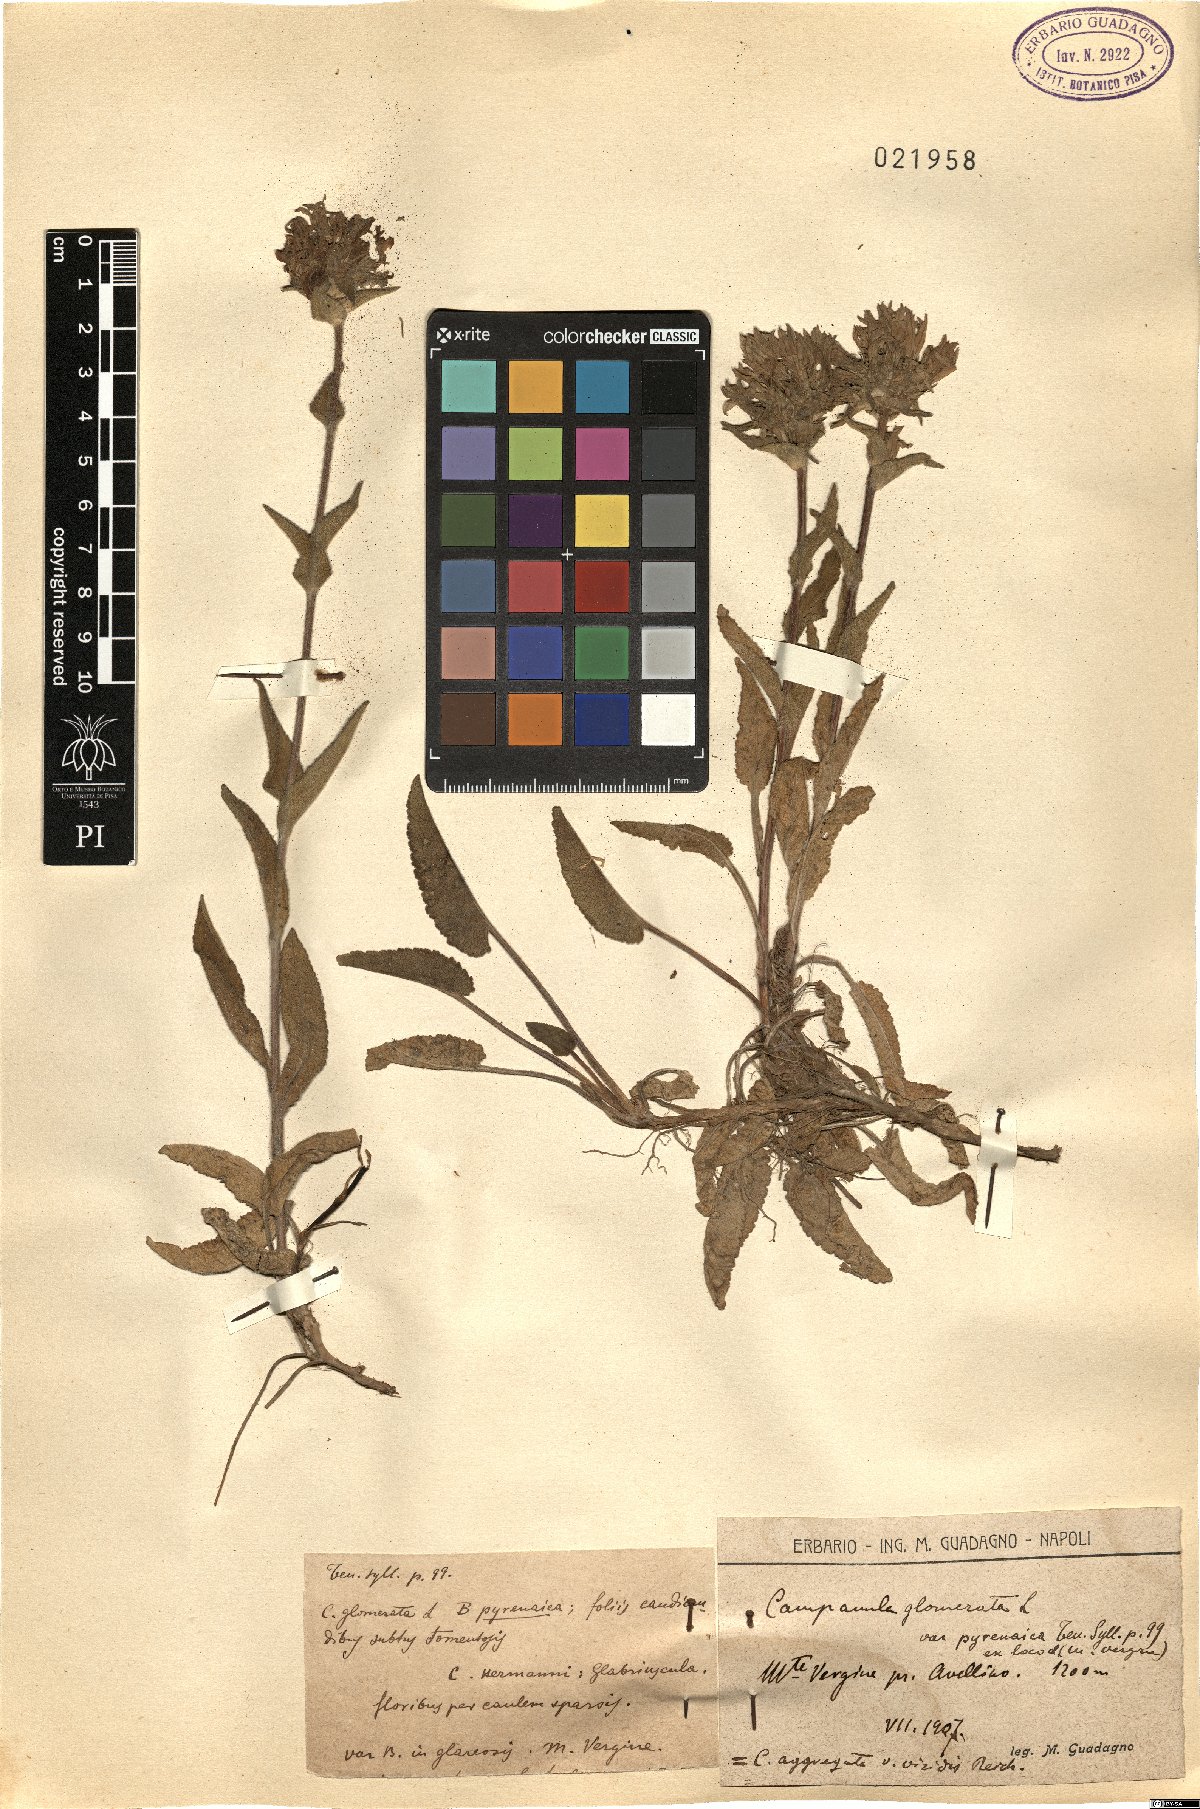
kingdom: Plantae
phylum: Tracheophyta
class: Magnoliopsida
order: Asterales
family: Campanulaceae
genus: Campanula
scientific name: Campanula glomerata
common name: Clustered bellflower
